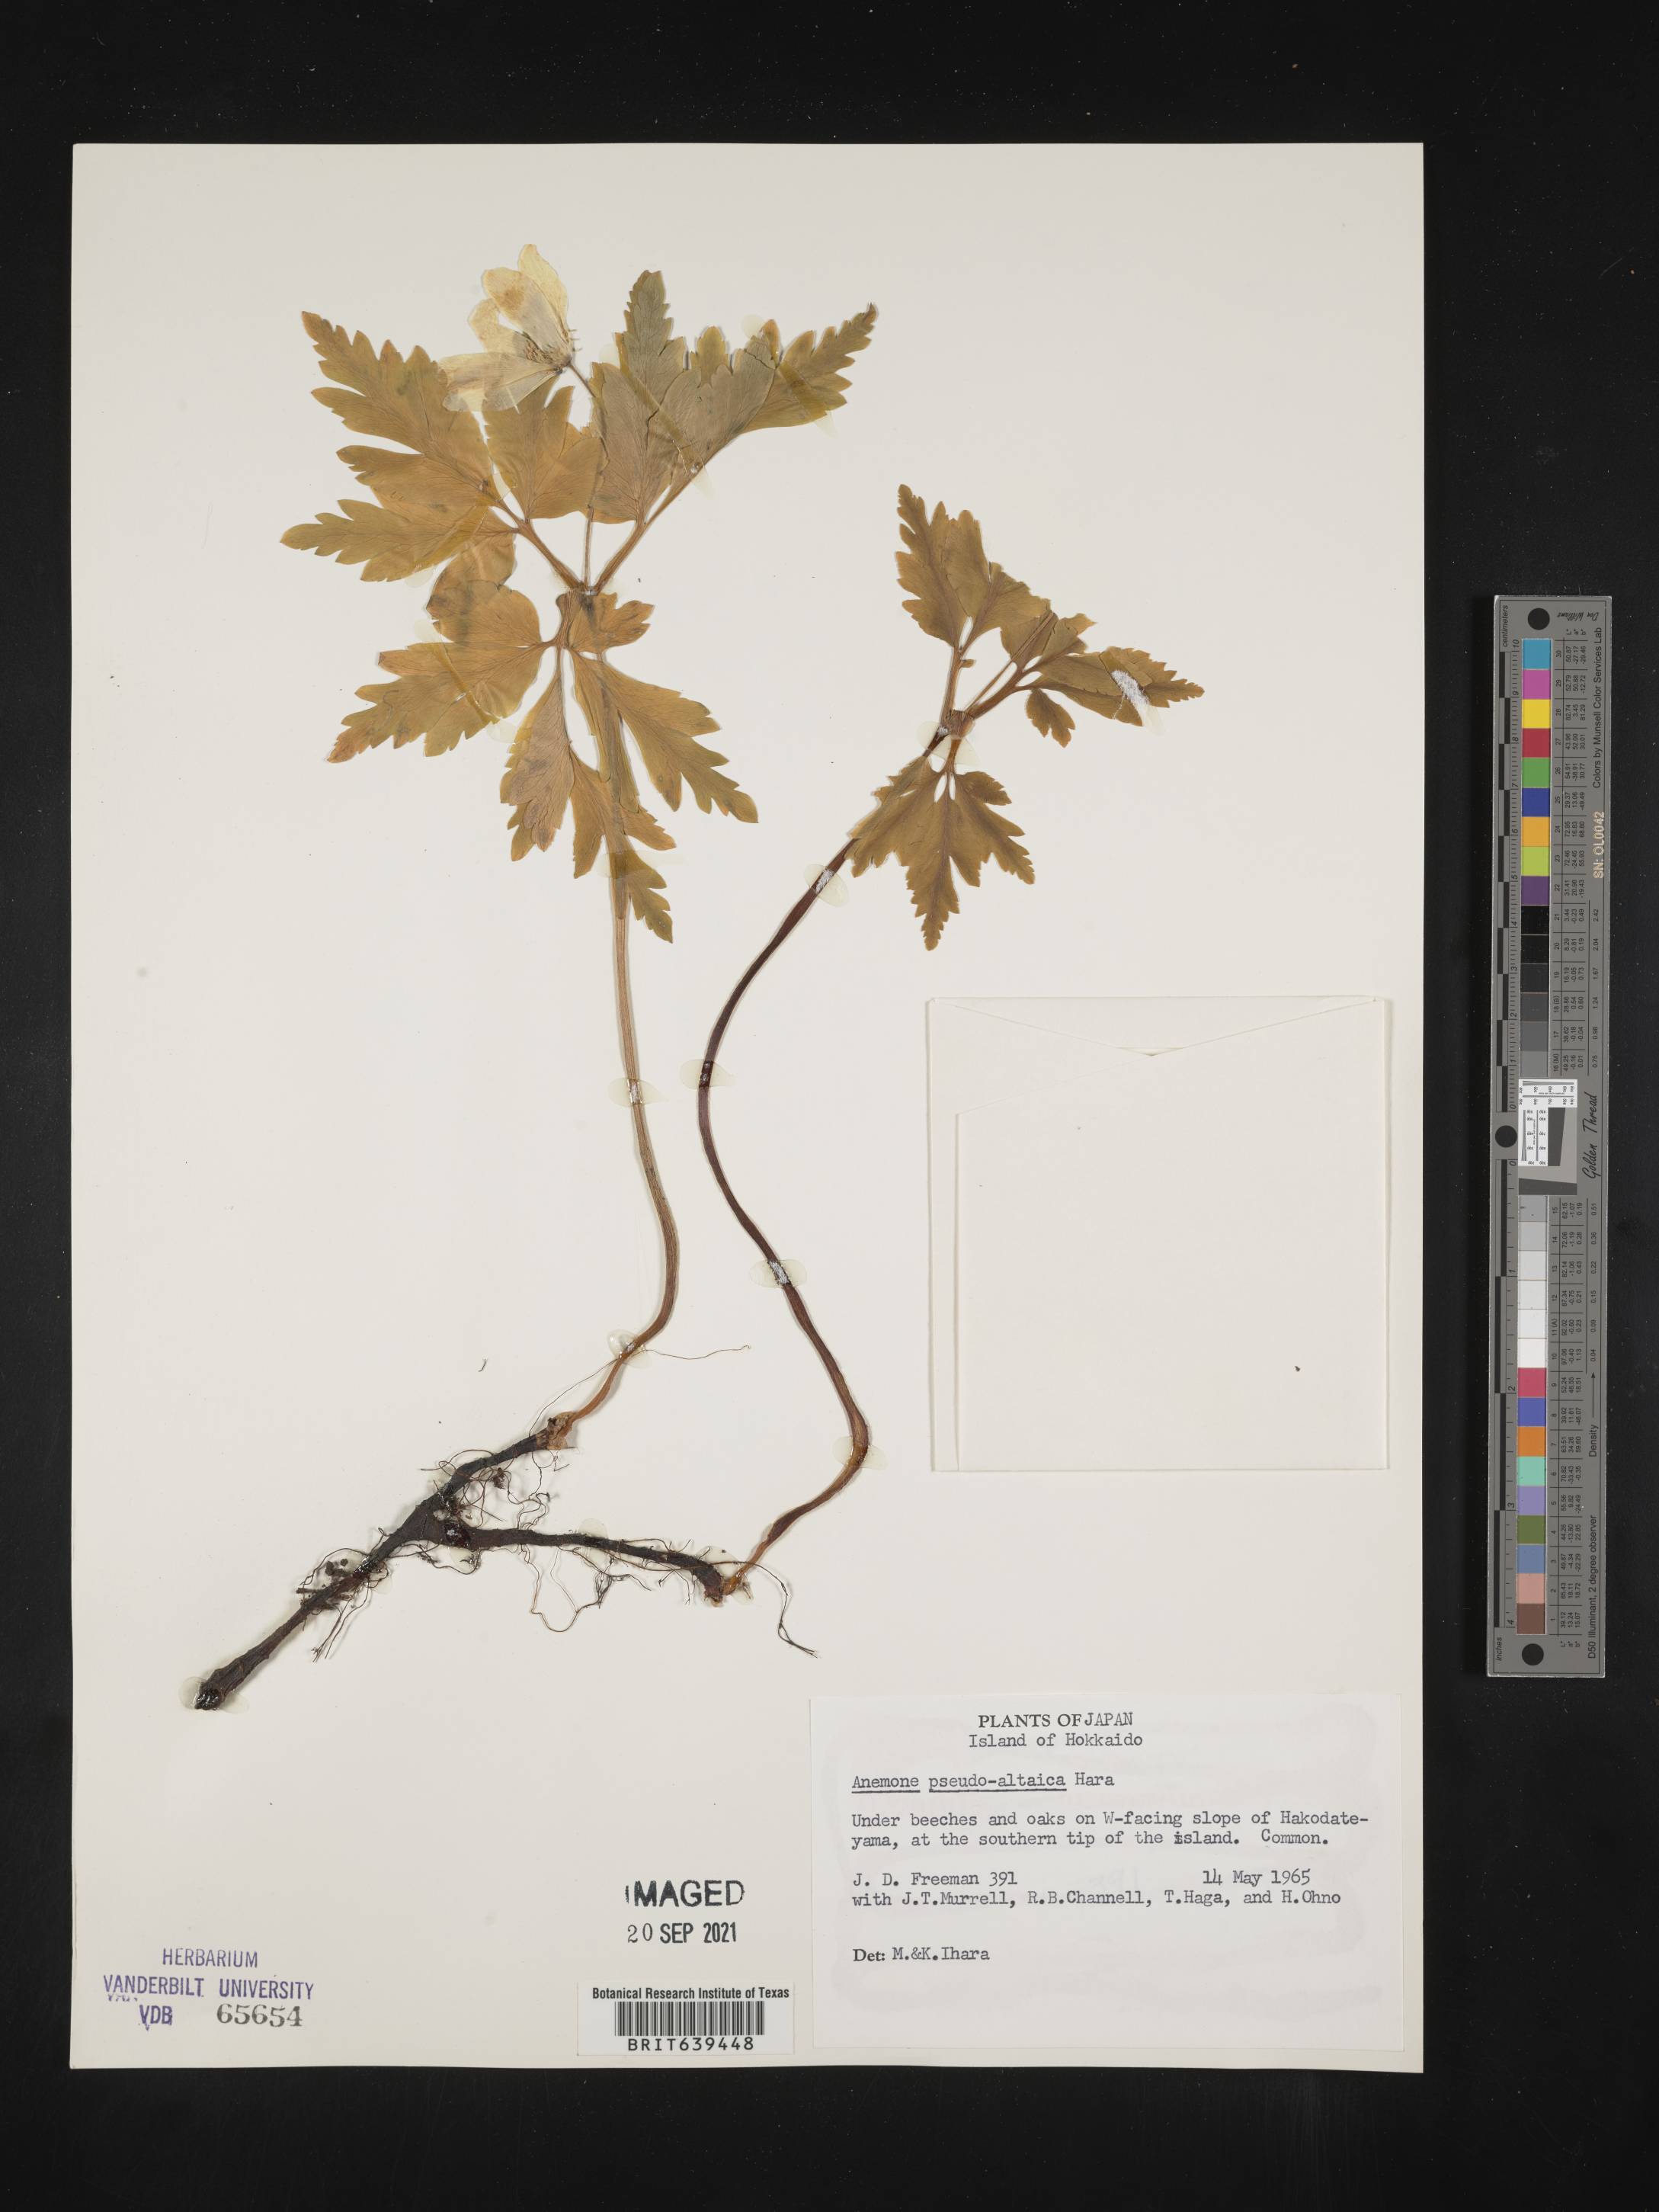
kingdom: Plantae
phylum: Tracheophyta
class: Magnoliopsida
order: Ranunculales
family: Ranunculaceae
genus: Anemone
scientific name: Anemone
